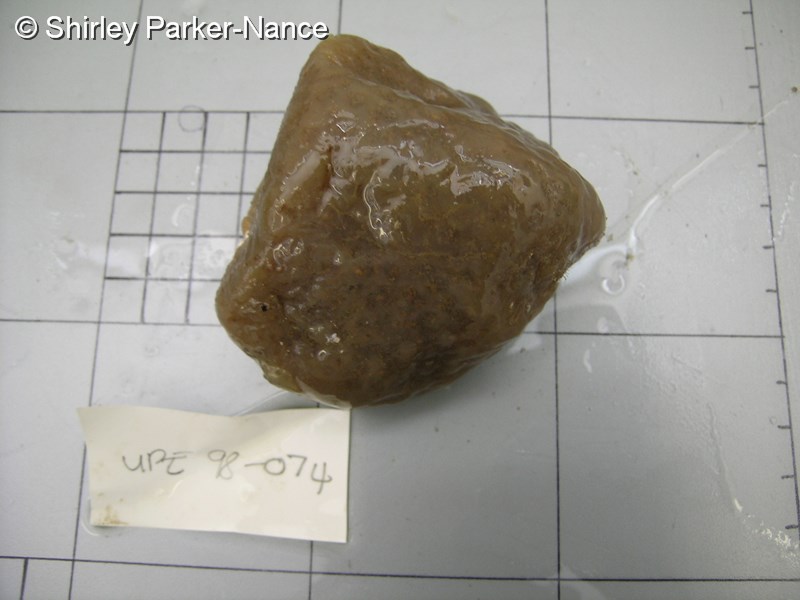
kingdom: Animalia
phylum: Chordata
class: Ascidiacea
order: Aplousobranchia
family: Polyclinidae
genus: Synoicum
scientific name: Synoicum
